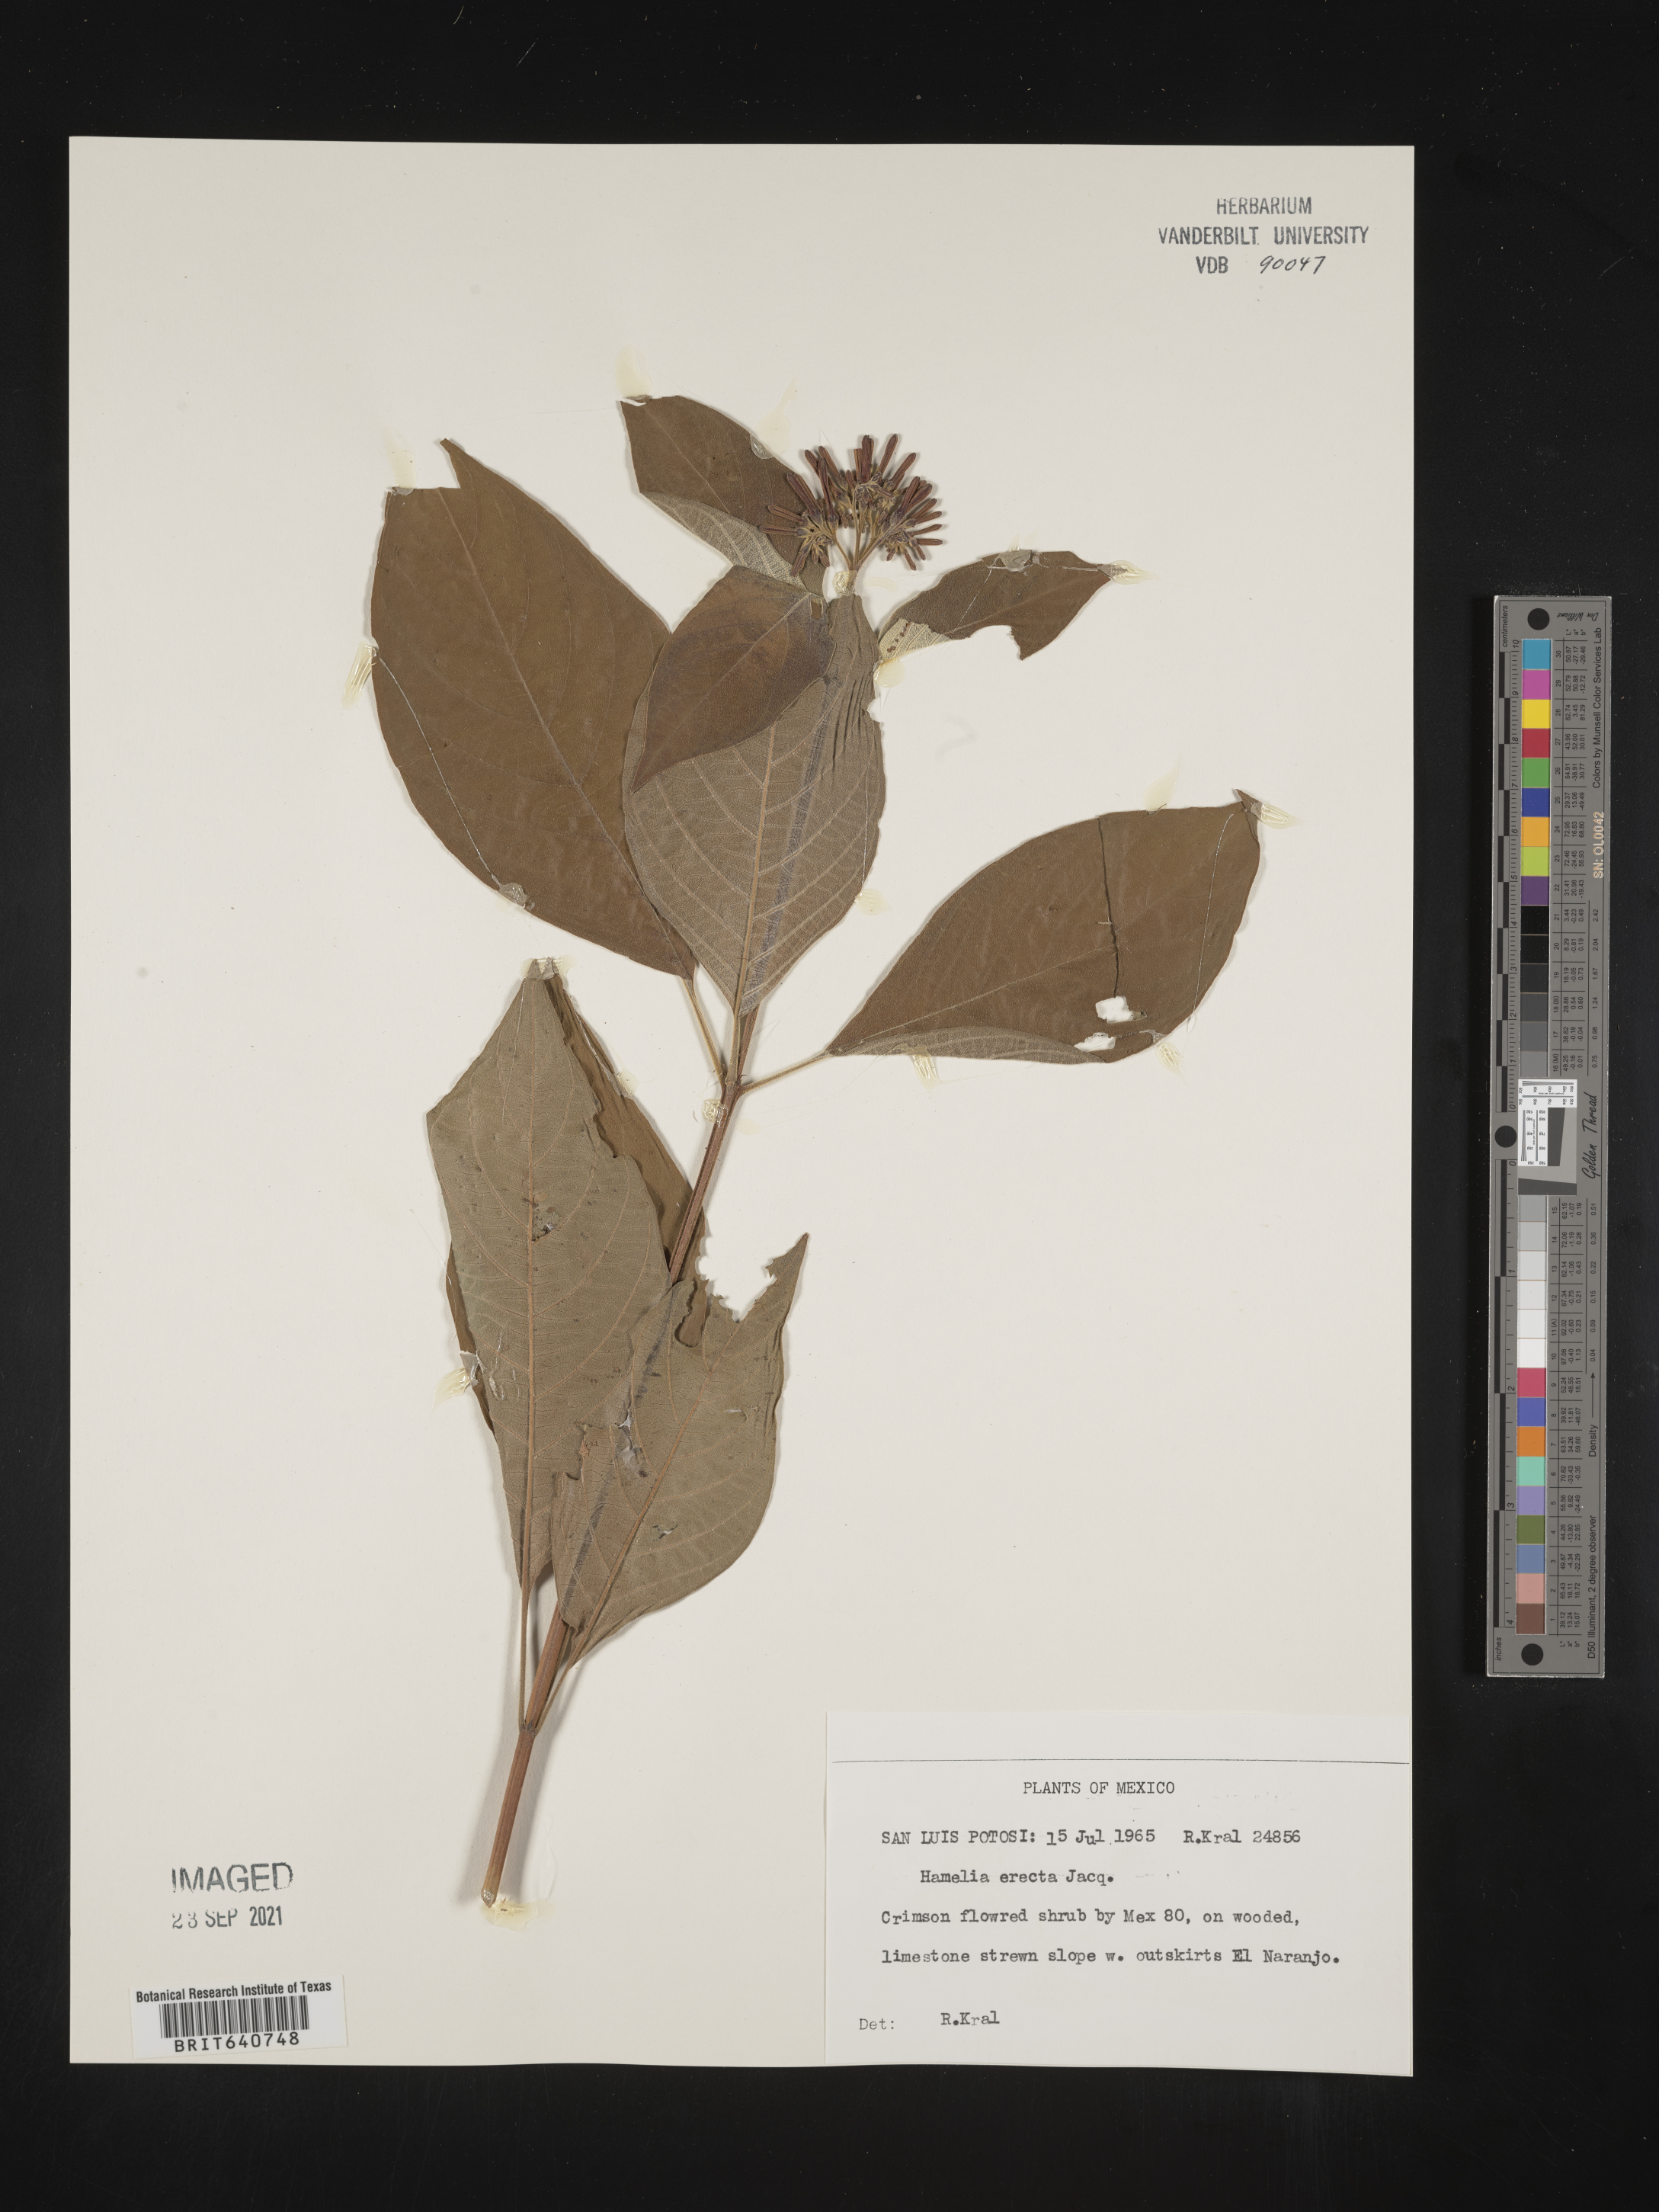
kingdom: Plantae
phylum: Tracheophyta
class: Magnoliopsida
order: Gentianales
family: Rubiaceae
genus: Hamelia
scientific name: Hamelia
